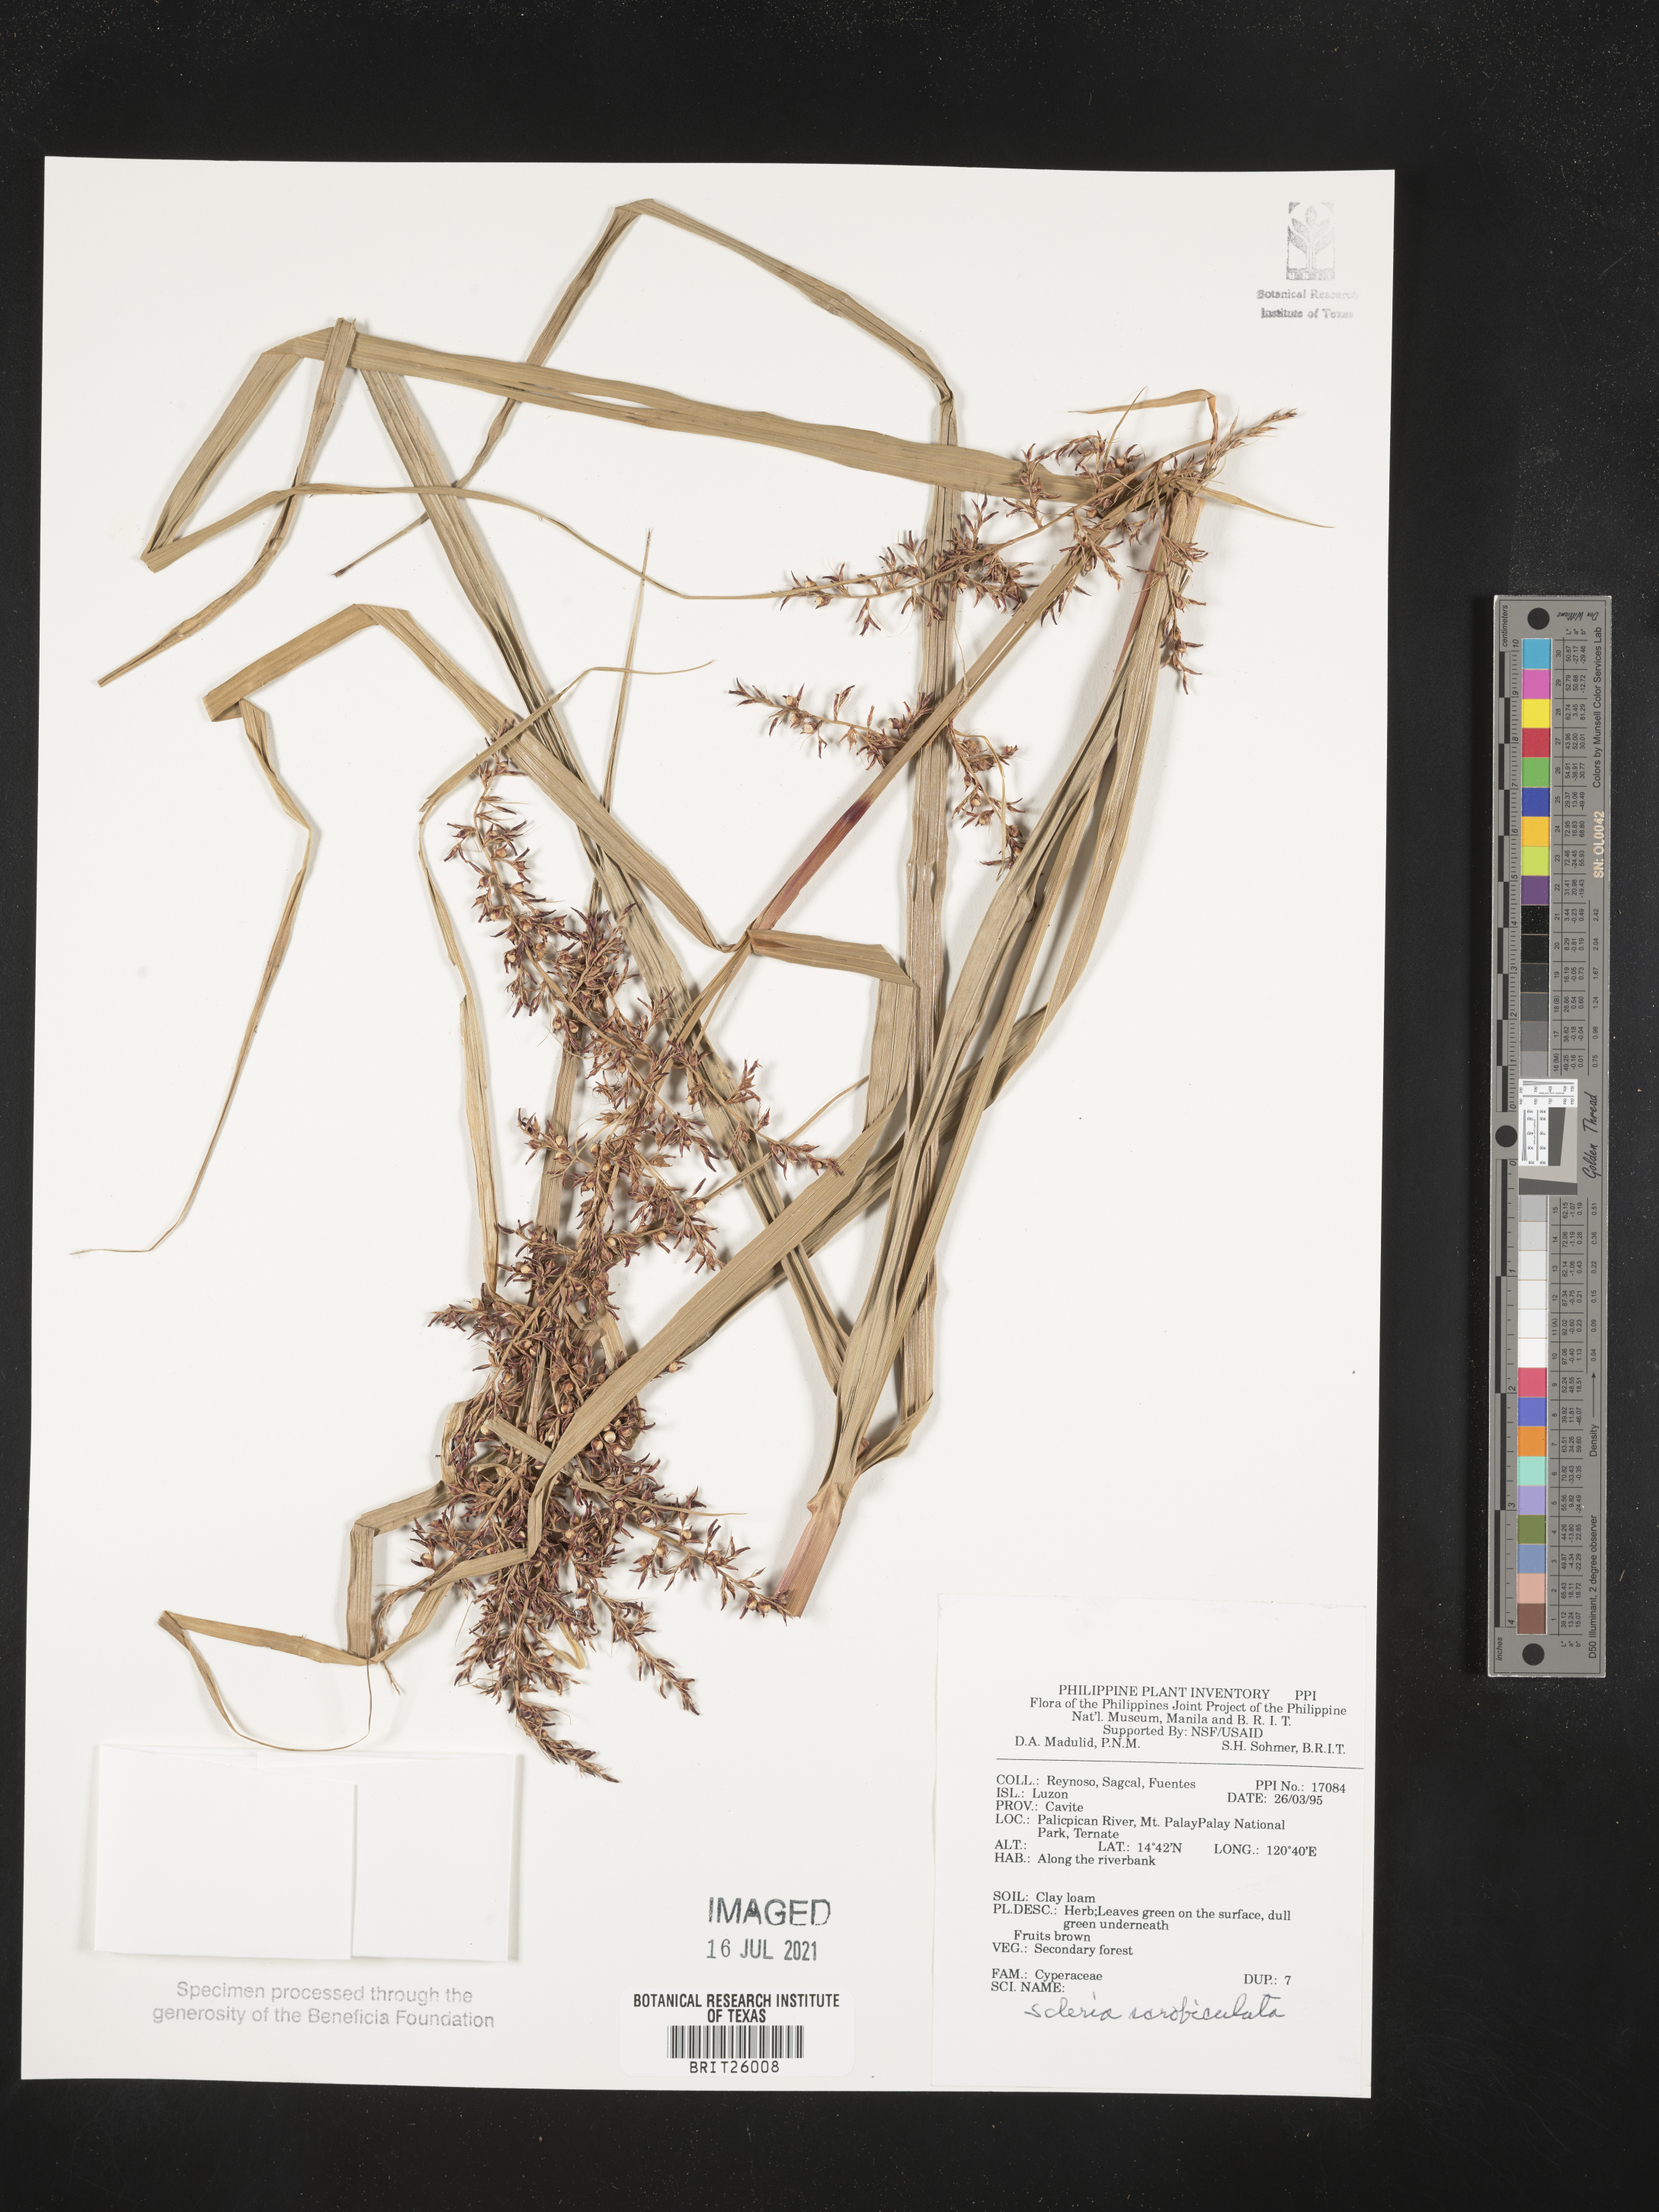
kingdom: Plantae
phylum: Tracheophyta
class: Liliopsida
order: Poales
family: Cyperaceae
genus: Scleria
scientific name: Scleria scrobiculata
